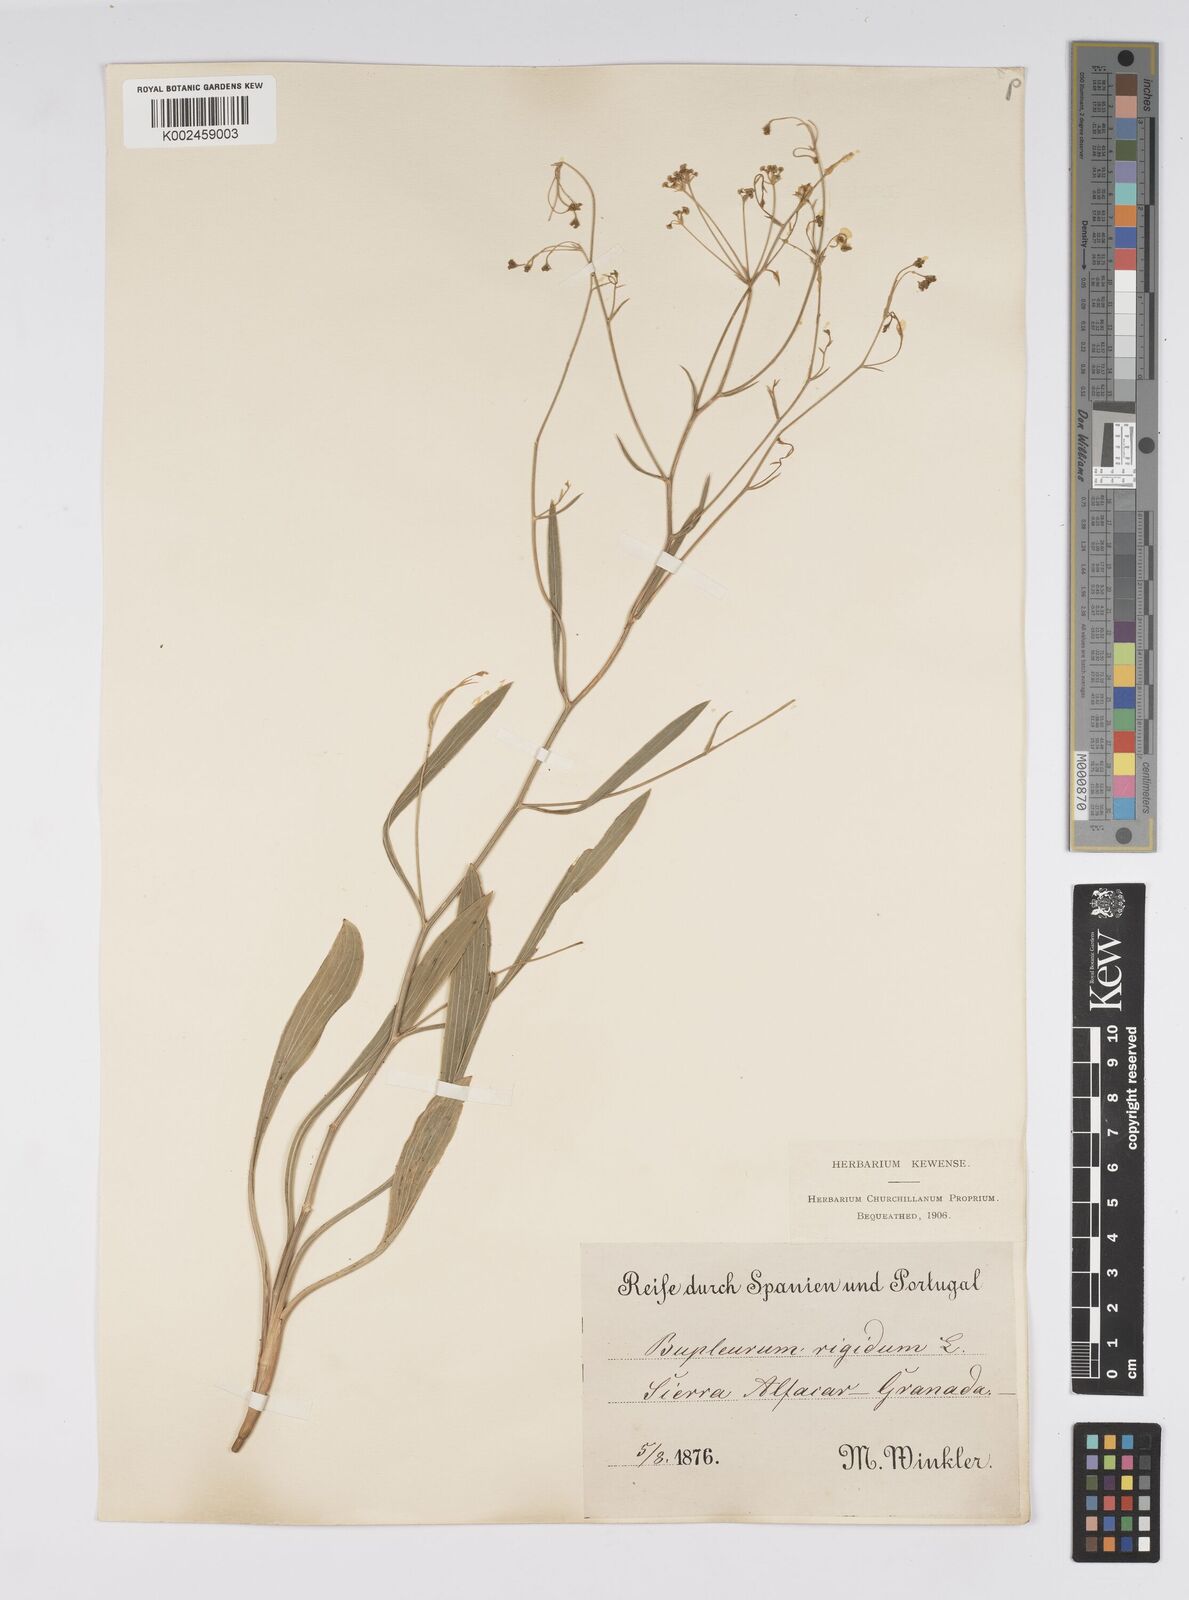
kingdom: Plantae
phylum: Tracheophyta
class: Magnoliopsida
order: Apiales
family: Apiaceae
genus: Bupleurum
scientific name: Bupleurum rigidum
